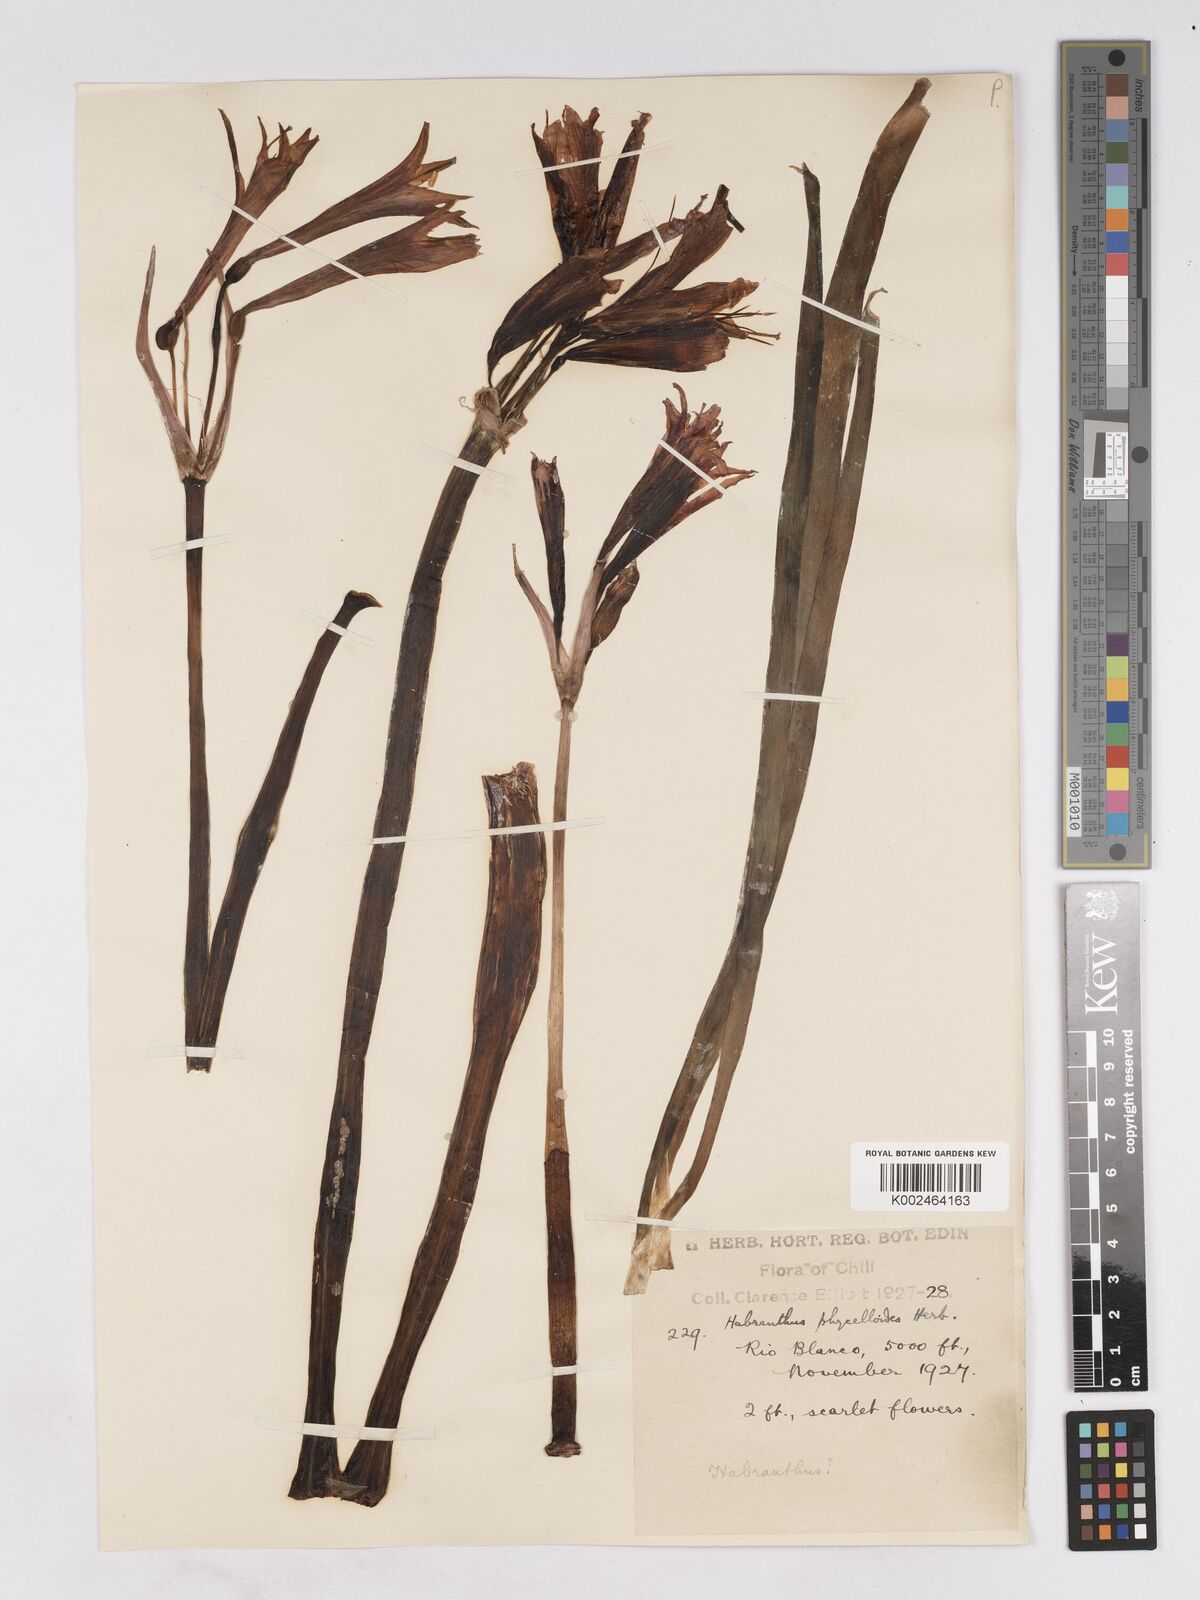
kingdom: Plantae
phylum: Tracheophyta
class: Liliopsida
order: Asparagales
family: Amaryllidaceae
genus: Zephyranthes
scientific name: Zephyranthes phycelloides
